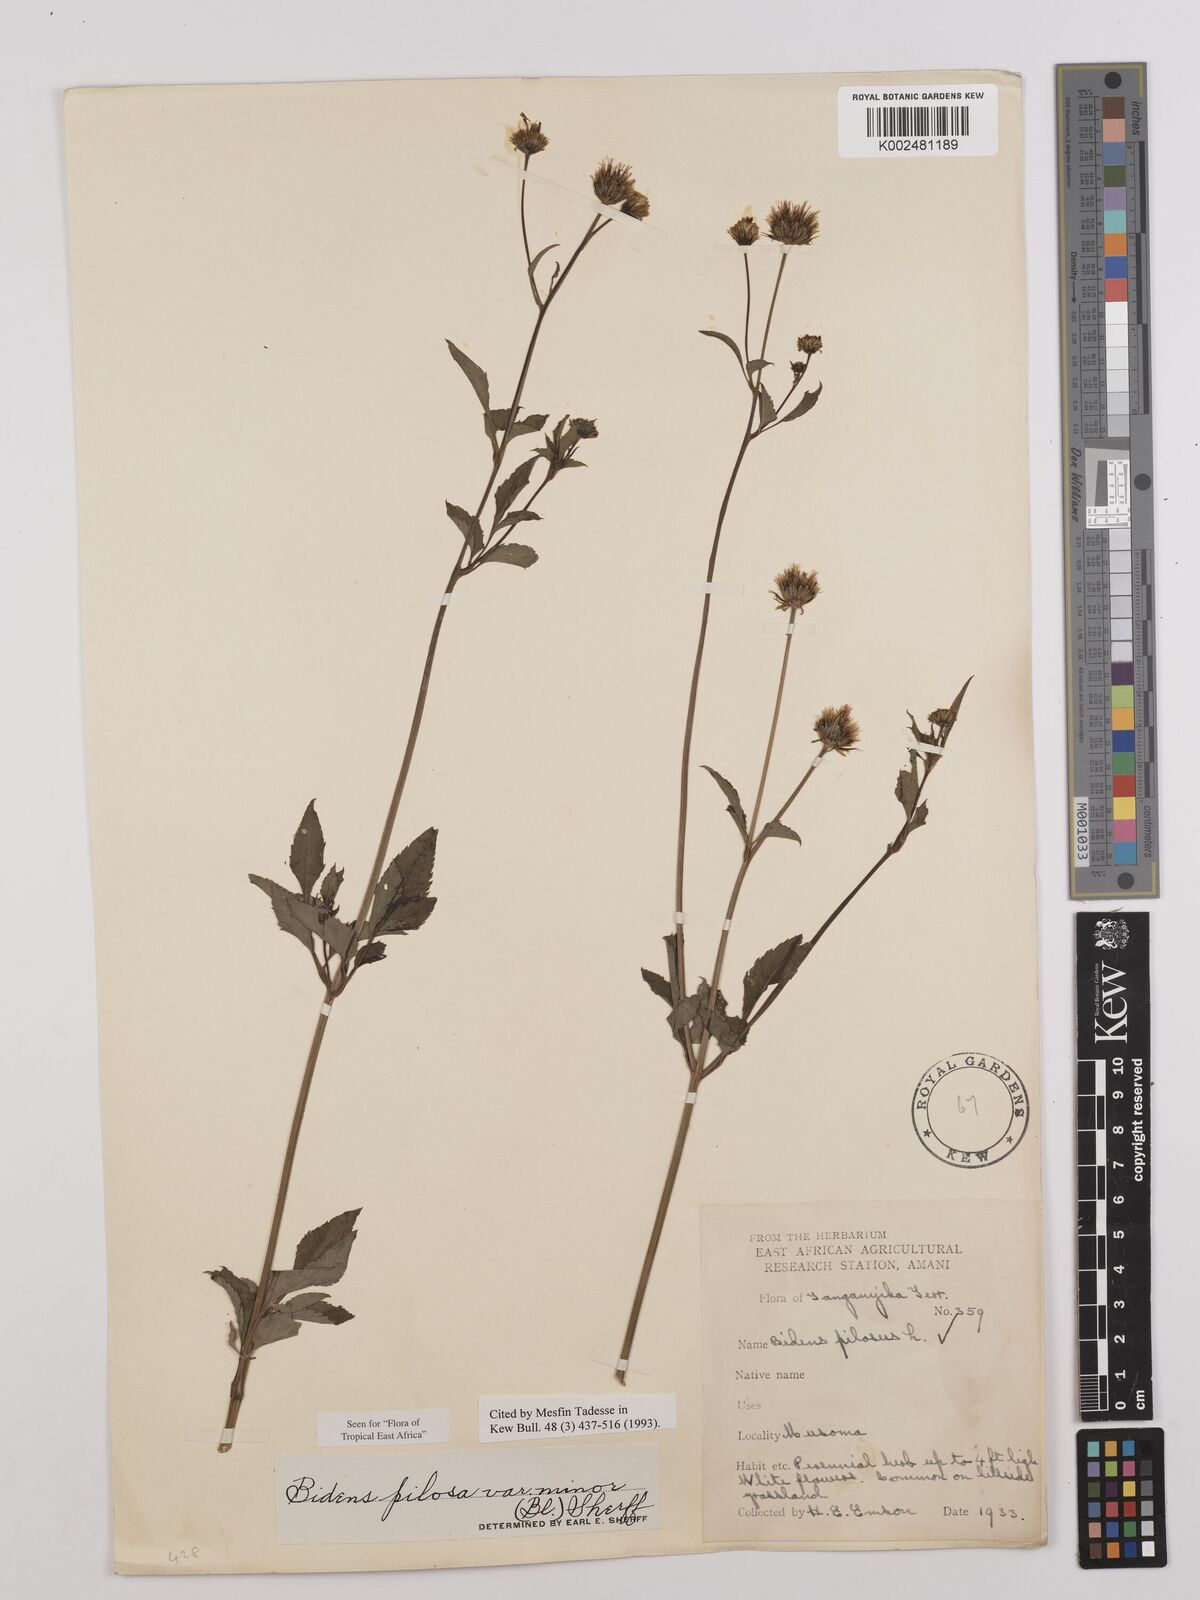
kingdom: Plantae
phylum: Tracheophyta
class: Magnoliopsida
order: Asterales
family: Asteraceae
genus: Bidens
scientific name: Bidens pilosa
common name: Black-jack
